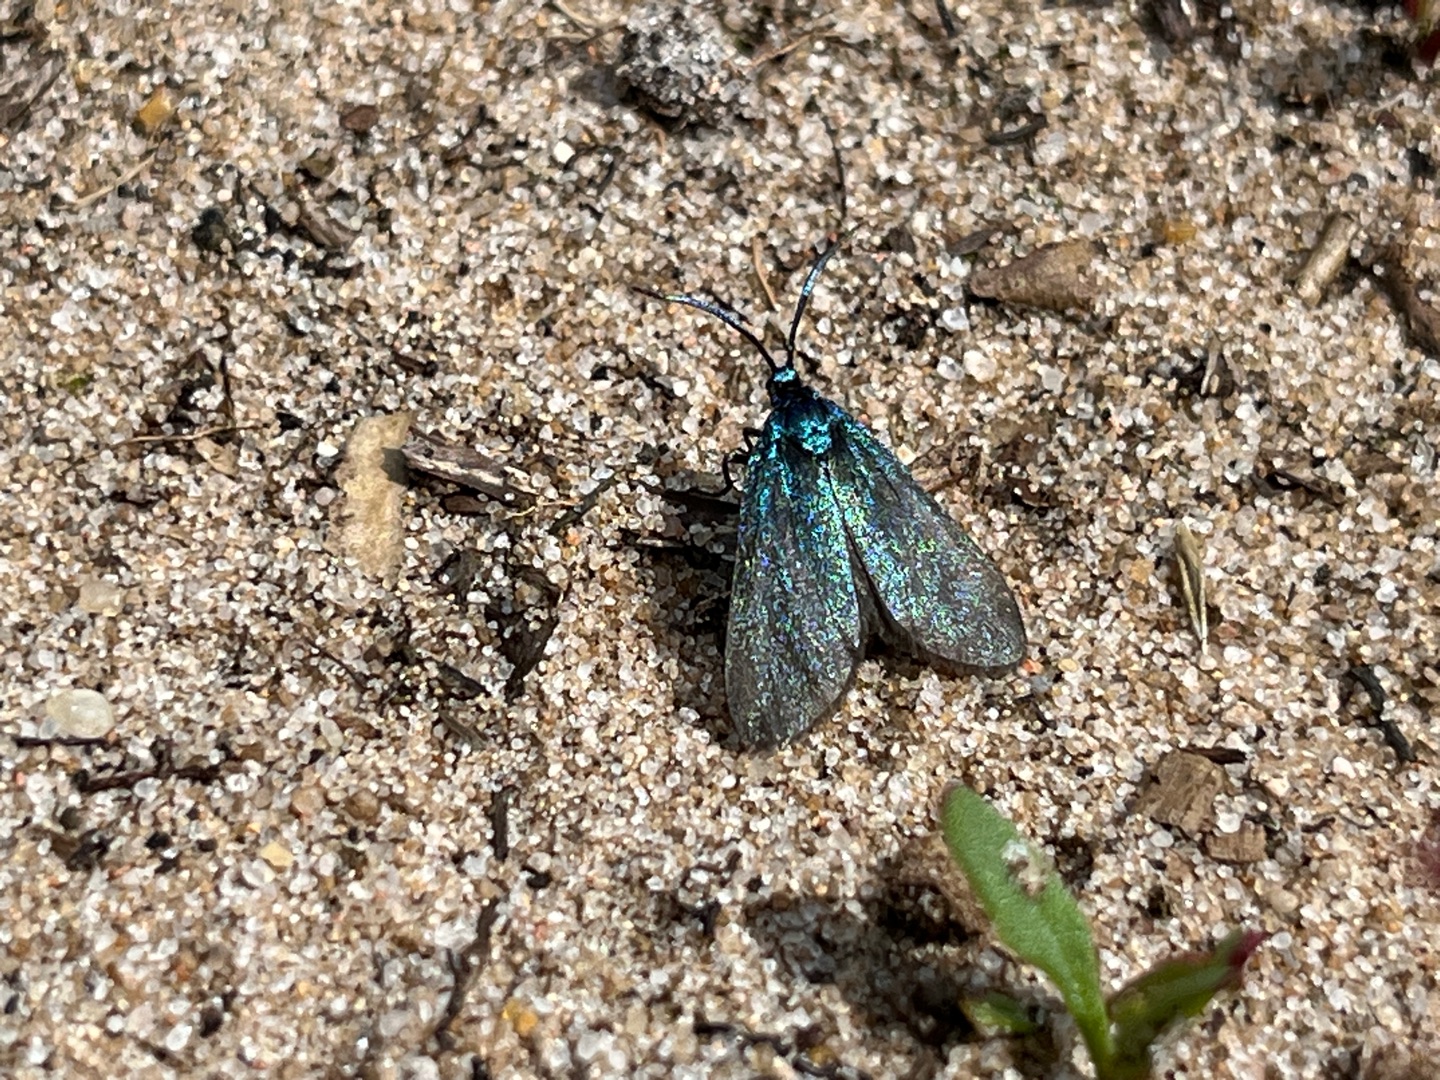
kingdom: Animalia
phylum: Arthropoda
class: Insecta
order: Lepidoptera
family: Zygaenidae
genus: Adscita
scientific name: Adscita statices
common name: Metalvinge
